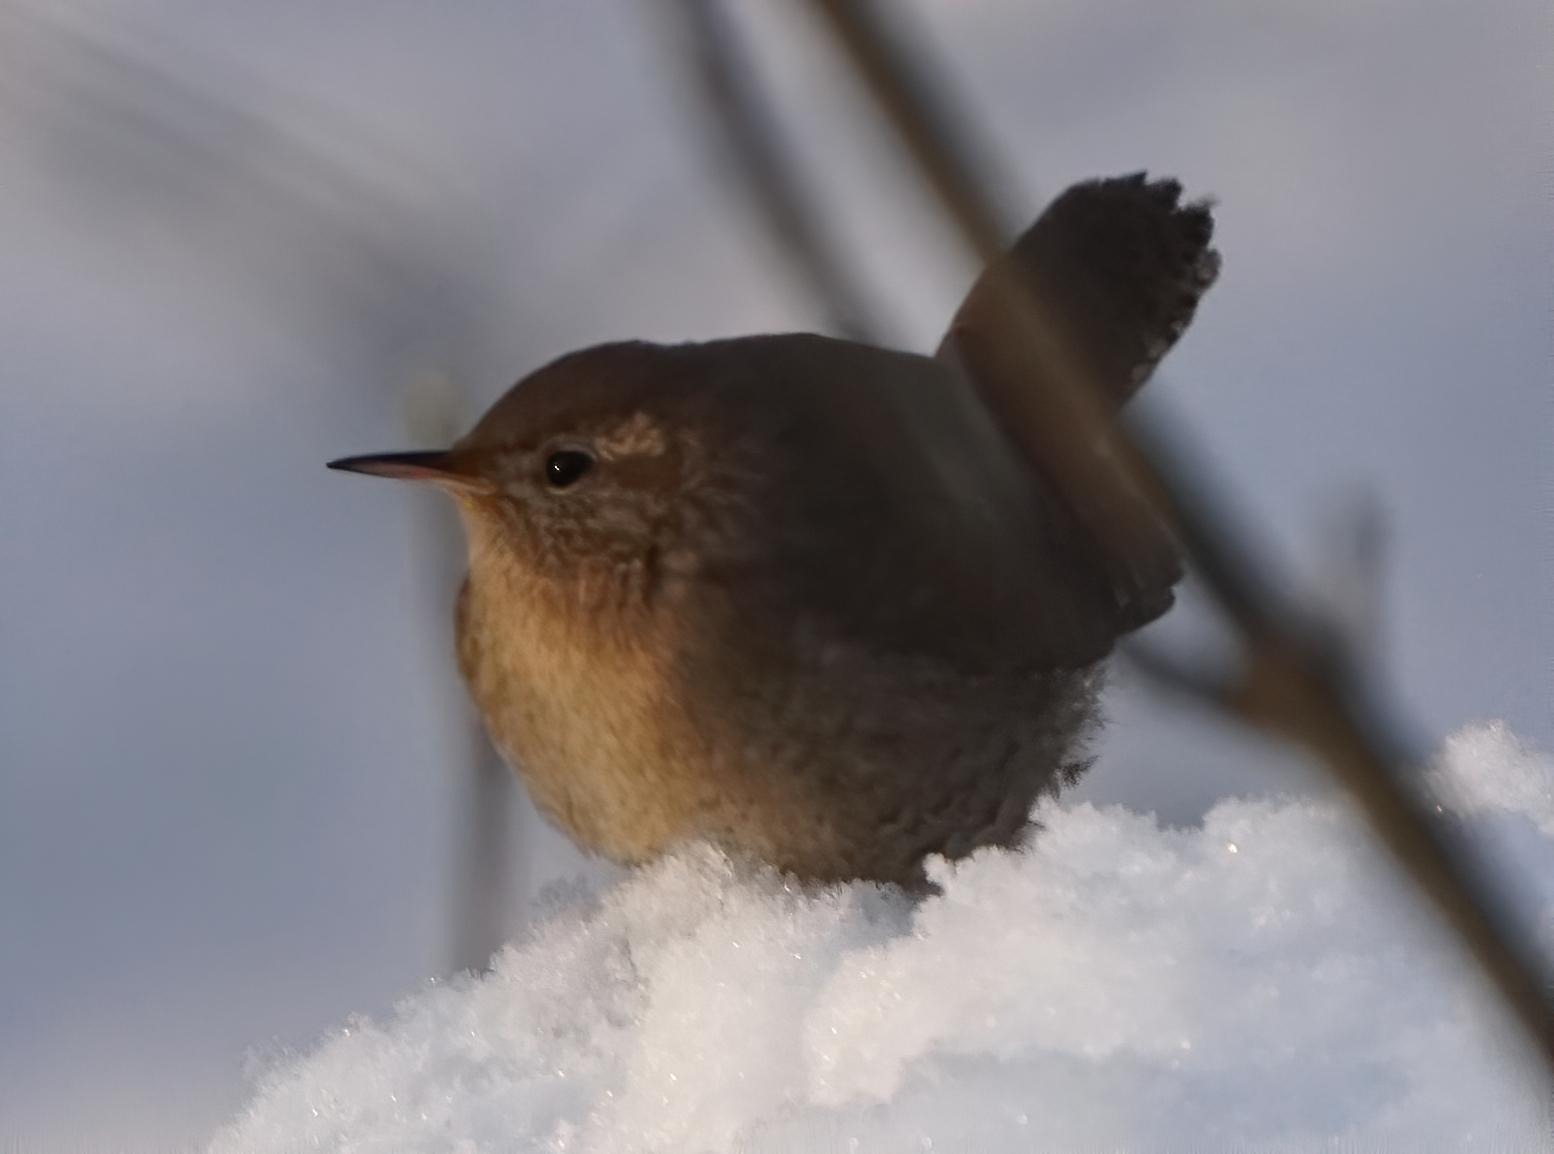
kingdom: Animalia
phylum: Chordata
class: Aves
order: Passeriformes
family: Troglodytidae
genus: Troglodytes
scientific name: Troglodytes troglodytes
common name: Gærdesmutte
